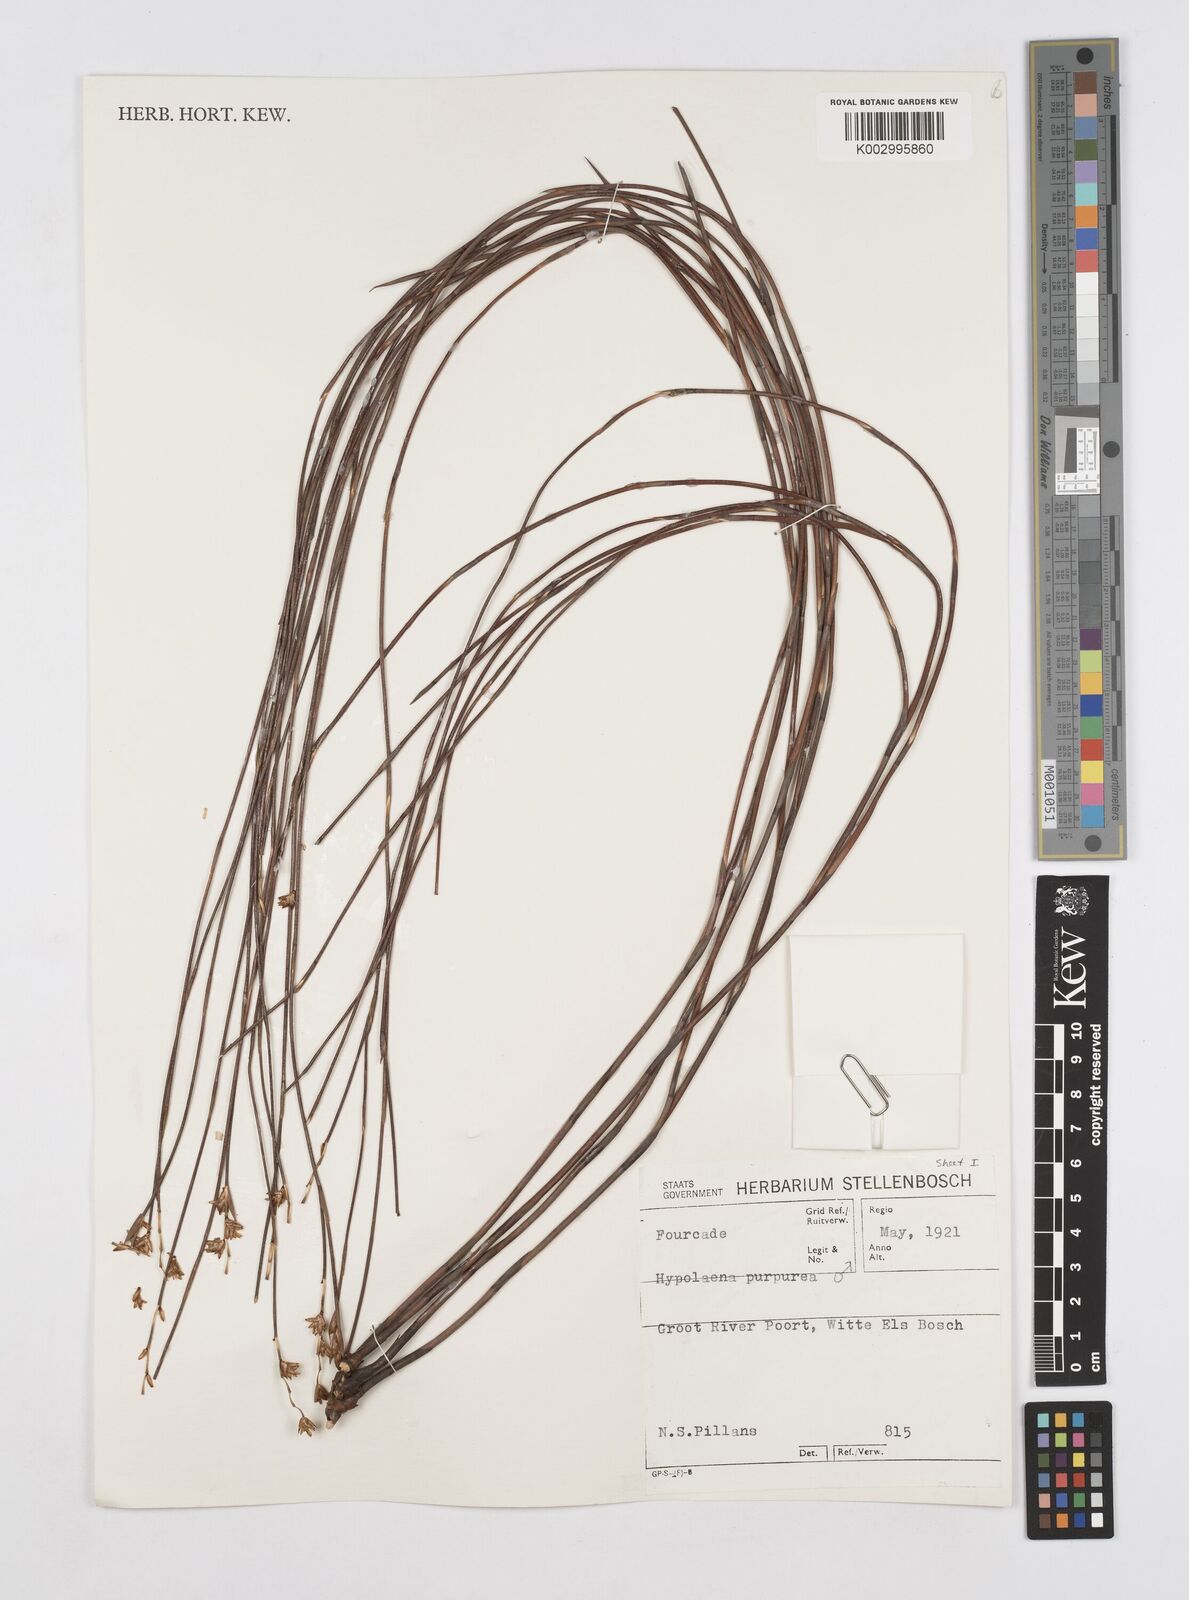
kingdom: Plantae
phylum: Tracheophyta
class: Liliopsida
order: Poales
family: Restionaceae
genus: Mastersiella
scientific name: Mastersiella purpurea
